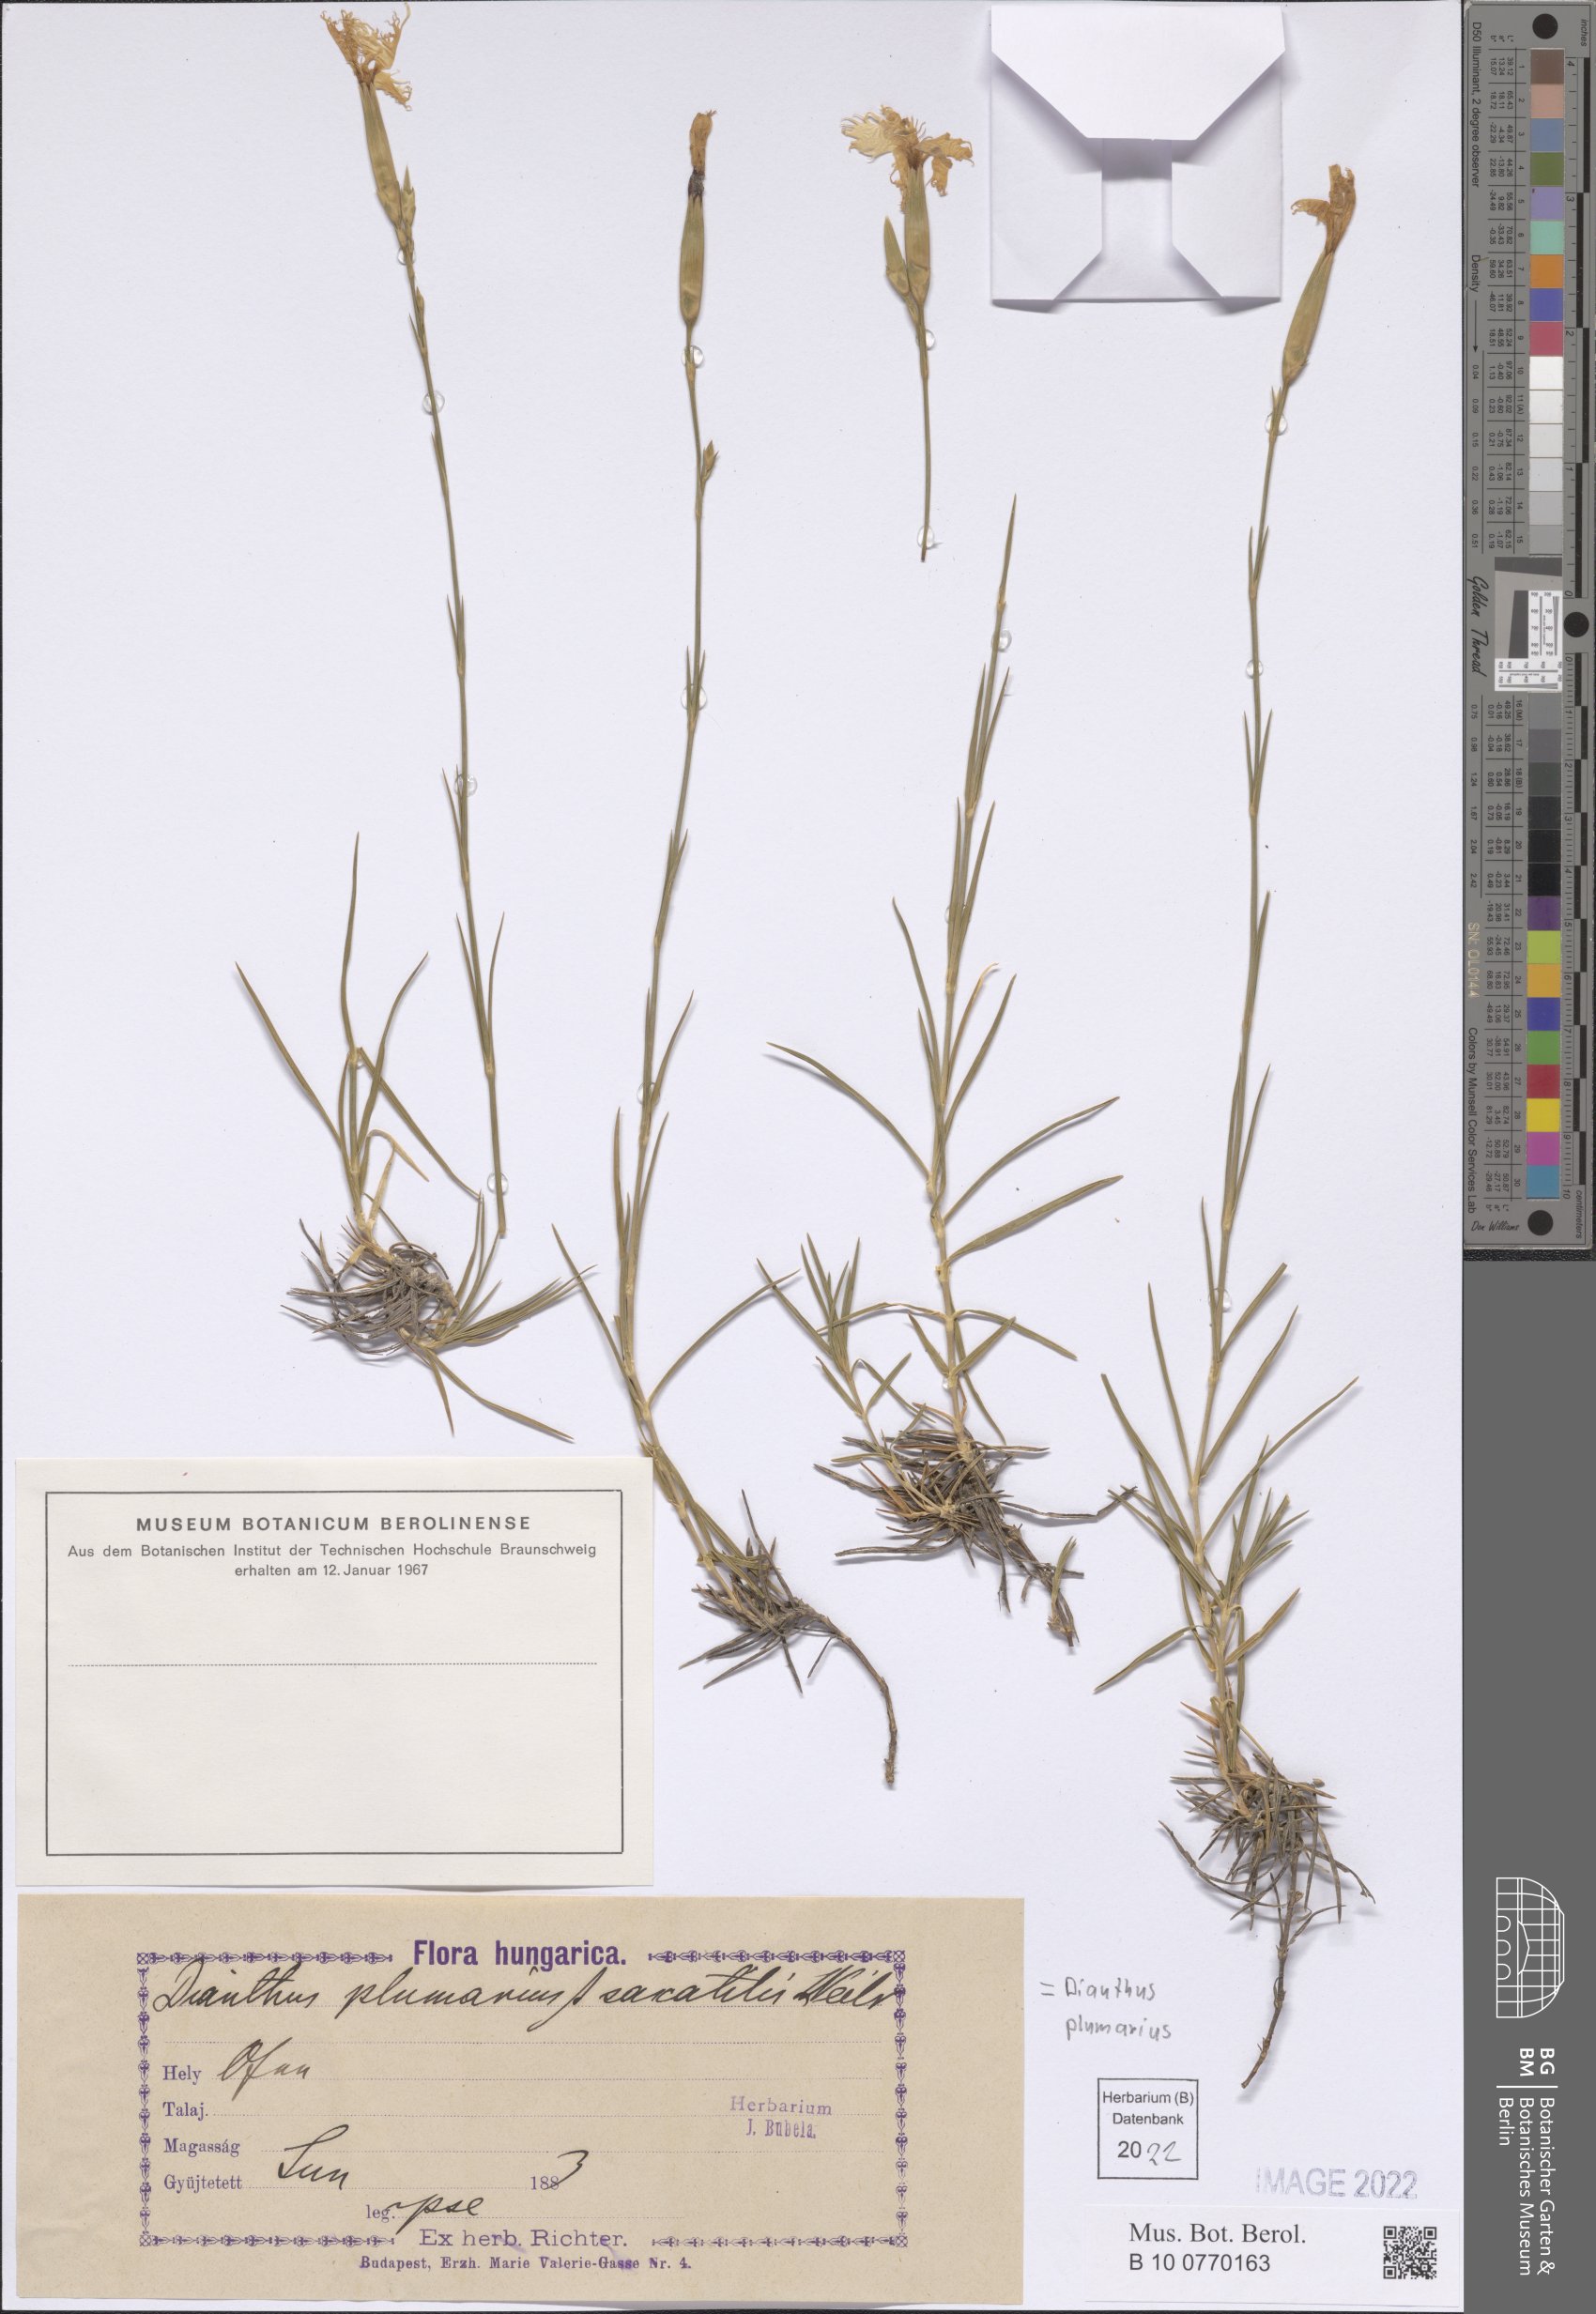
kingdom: Plantae
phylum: Tracheophyta
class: Magnoliopsida
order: Caryophyllales
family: Caryophyllaceae
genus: Dianthus
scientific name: Dianthus plumarius
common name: Pink
